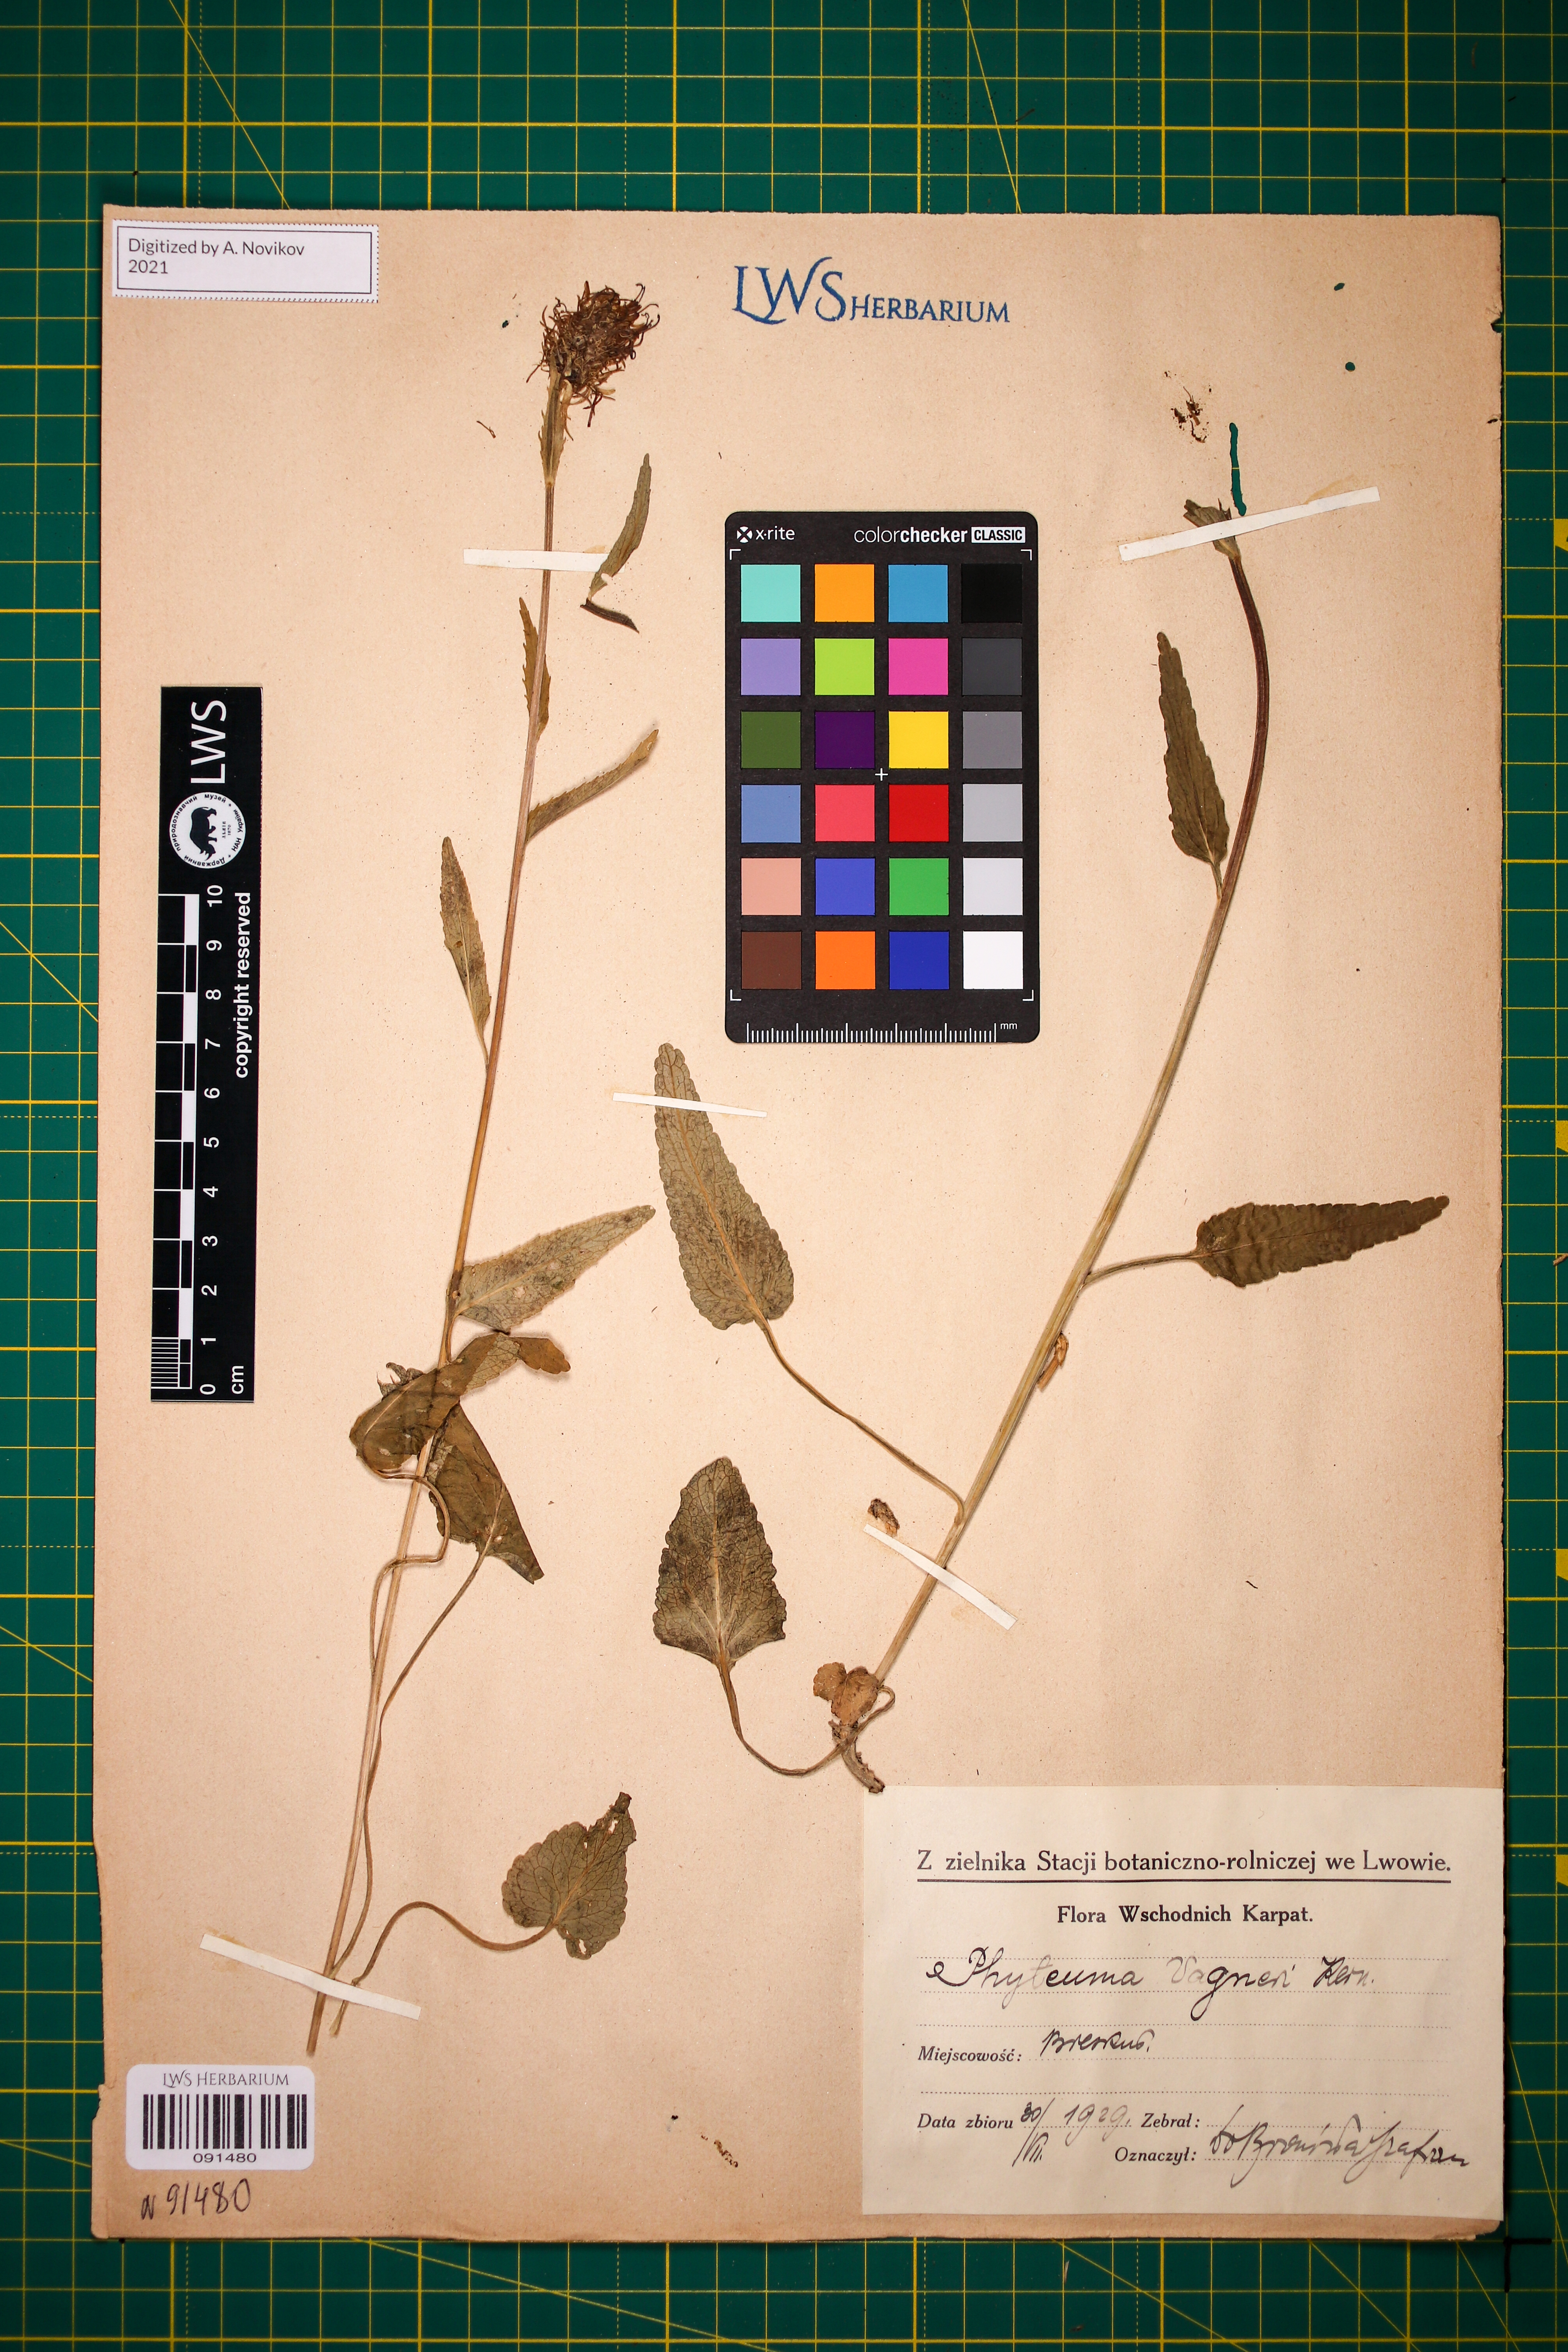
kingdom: Plantae
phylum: Tracheophyta
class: Magnoliopsida
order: Asterales
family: Campanulaceae
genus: Phyteuma
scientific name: Phyteuma vagneri
